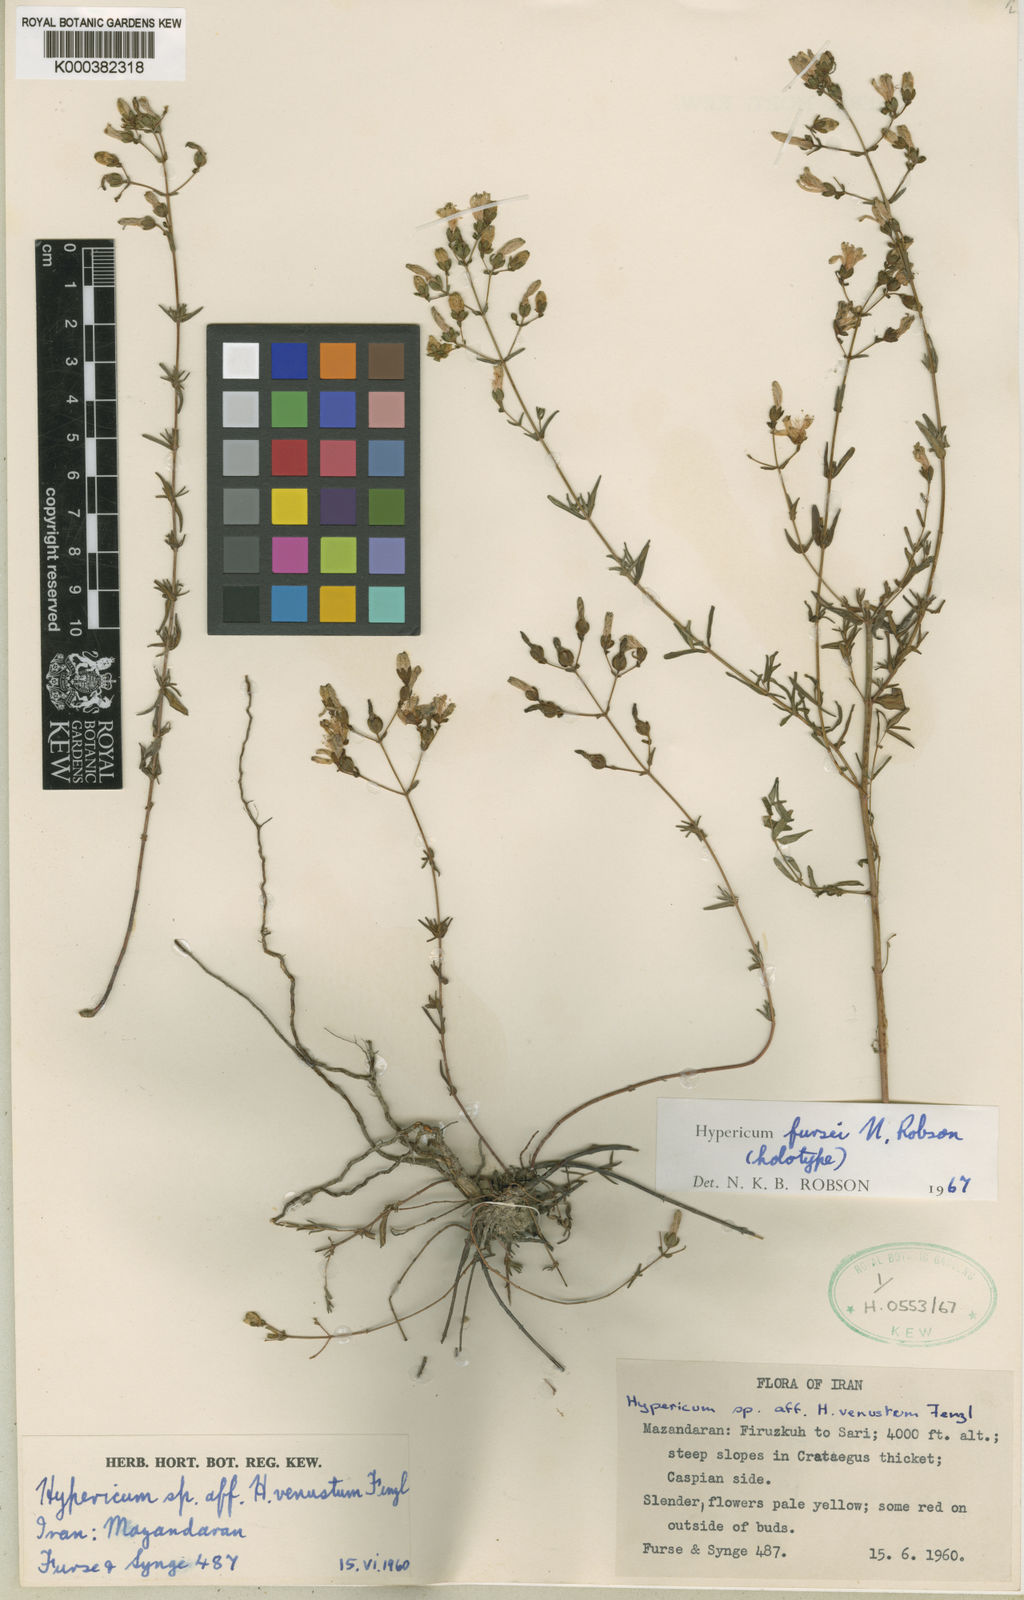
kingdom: Plantae
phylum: Tracheophyta
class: Magnoliopsida
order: Malpighiales
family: Hypericaceae
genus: Hypericum
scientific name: Hypericum fursei
